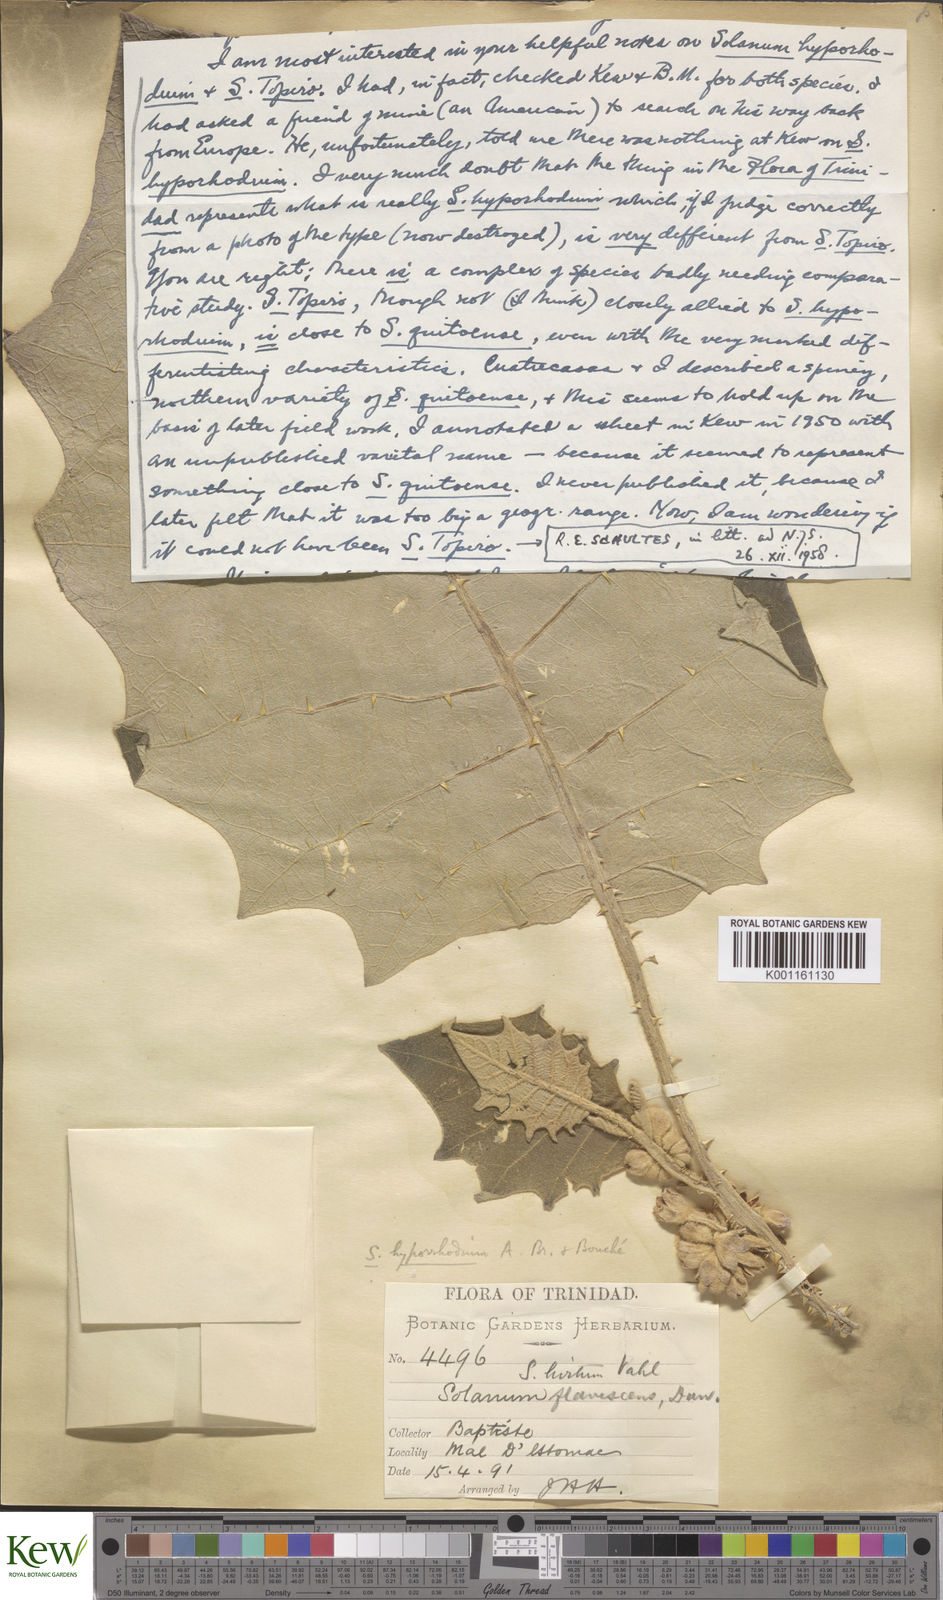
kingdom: Plantae
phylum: Tracheophyta
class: Magnoliopsida
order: Solanales
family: Solanaceae
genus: Solanum
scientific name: Solanum
